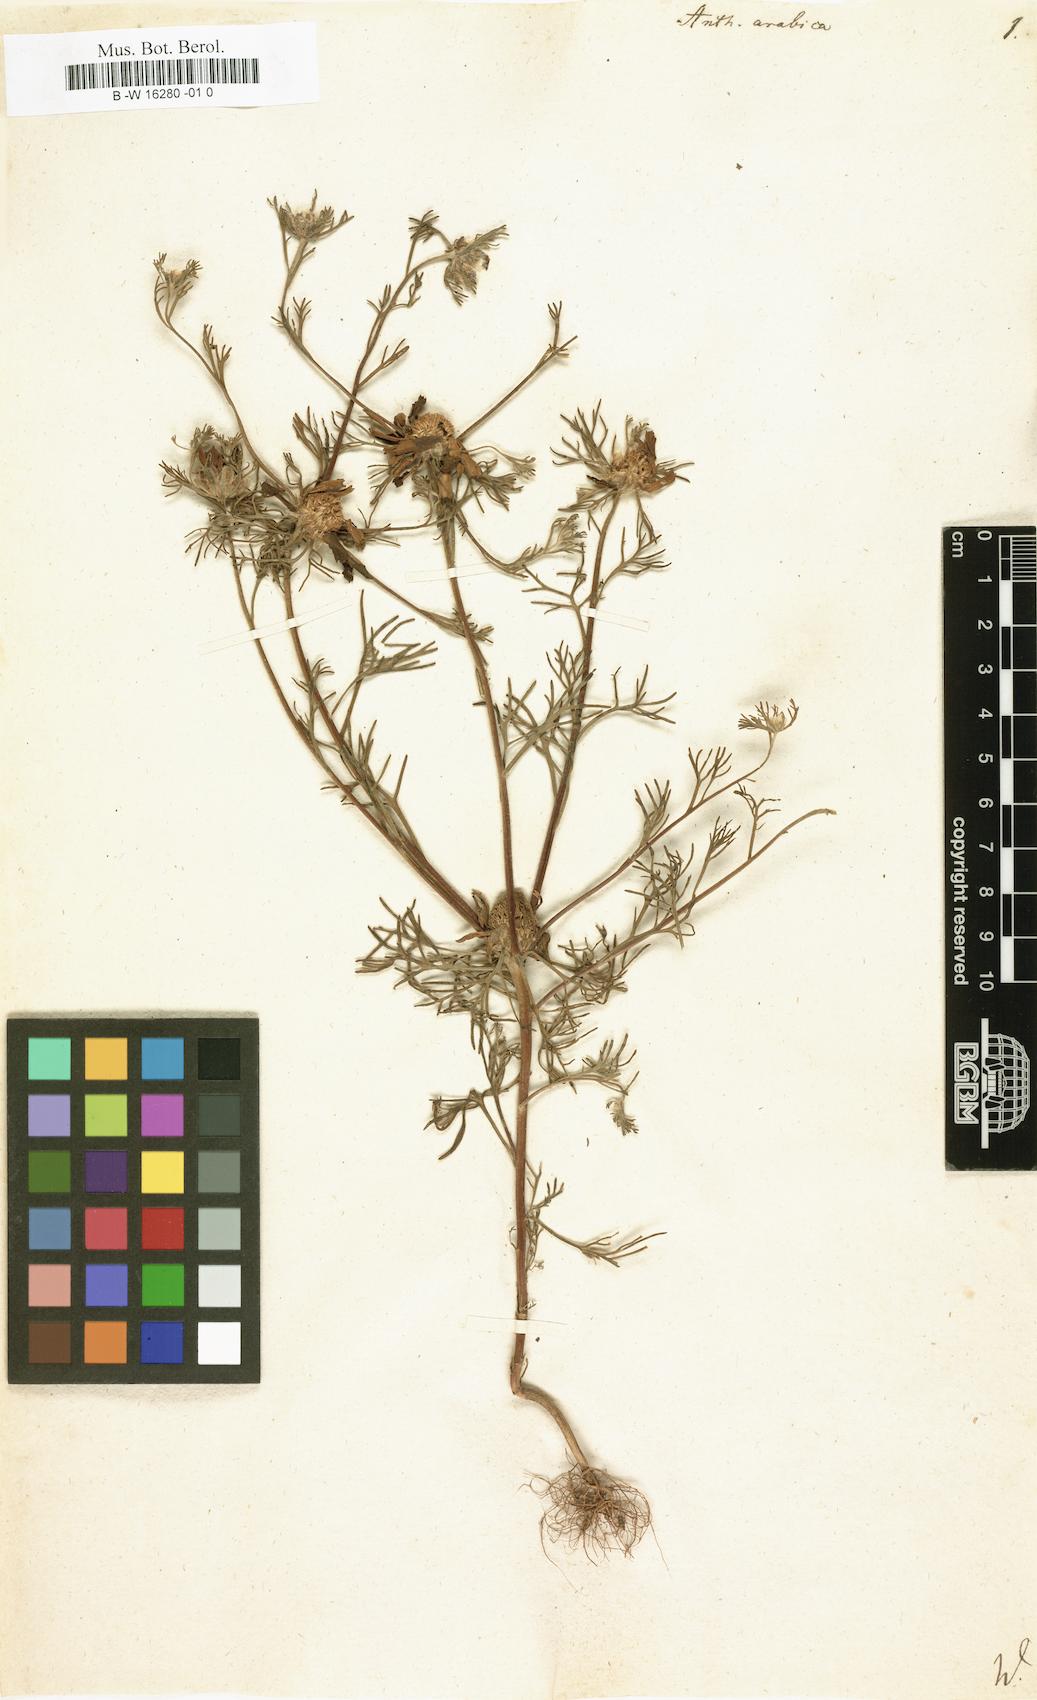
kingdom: Plantae
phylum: Tracheophyta
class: Magnoliopsida
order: Asterales
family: Asteraceae
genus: Cladanthus
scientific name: Cladanthus arabicus
